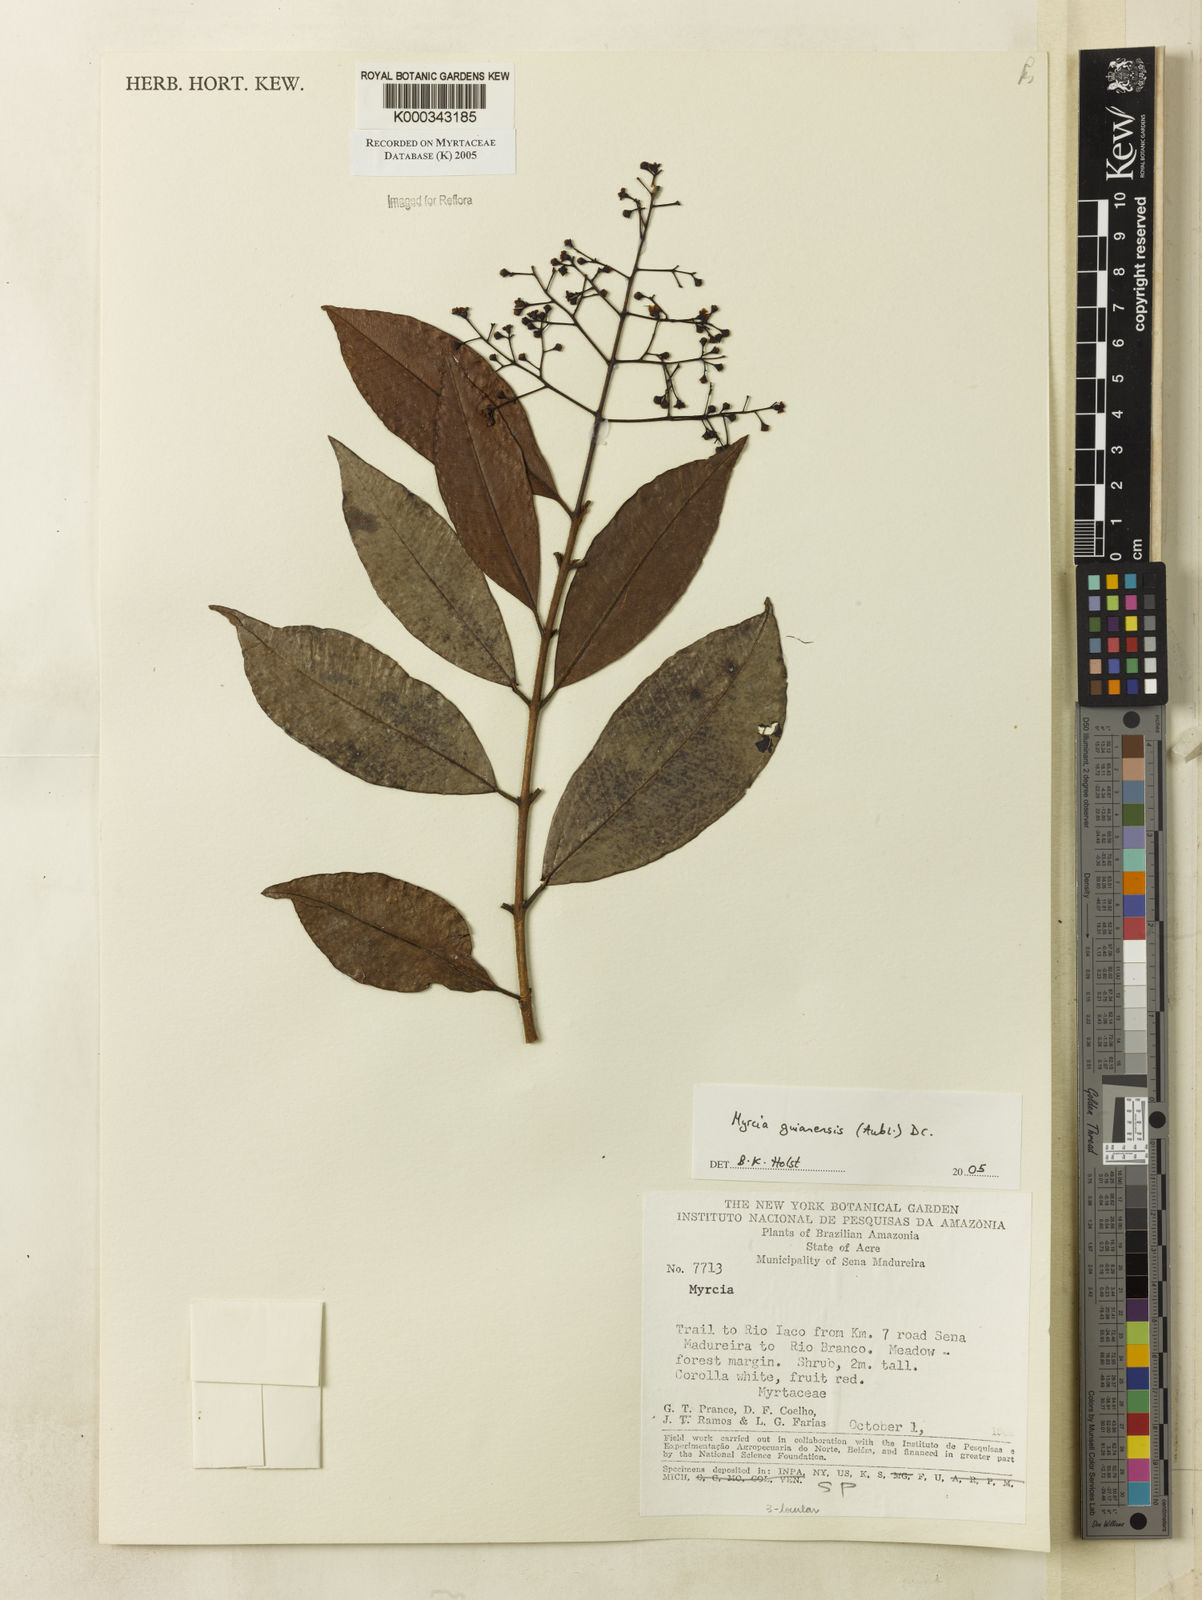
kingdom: Plantae
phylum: Tracheophyta
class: Magnoliopsida
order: Myrtales
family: Myrtaceae
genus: Myrcia
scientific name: Myrcia guianensis
